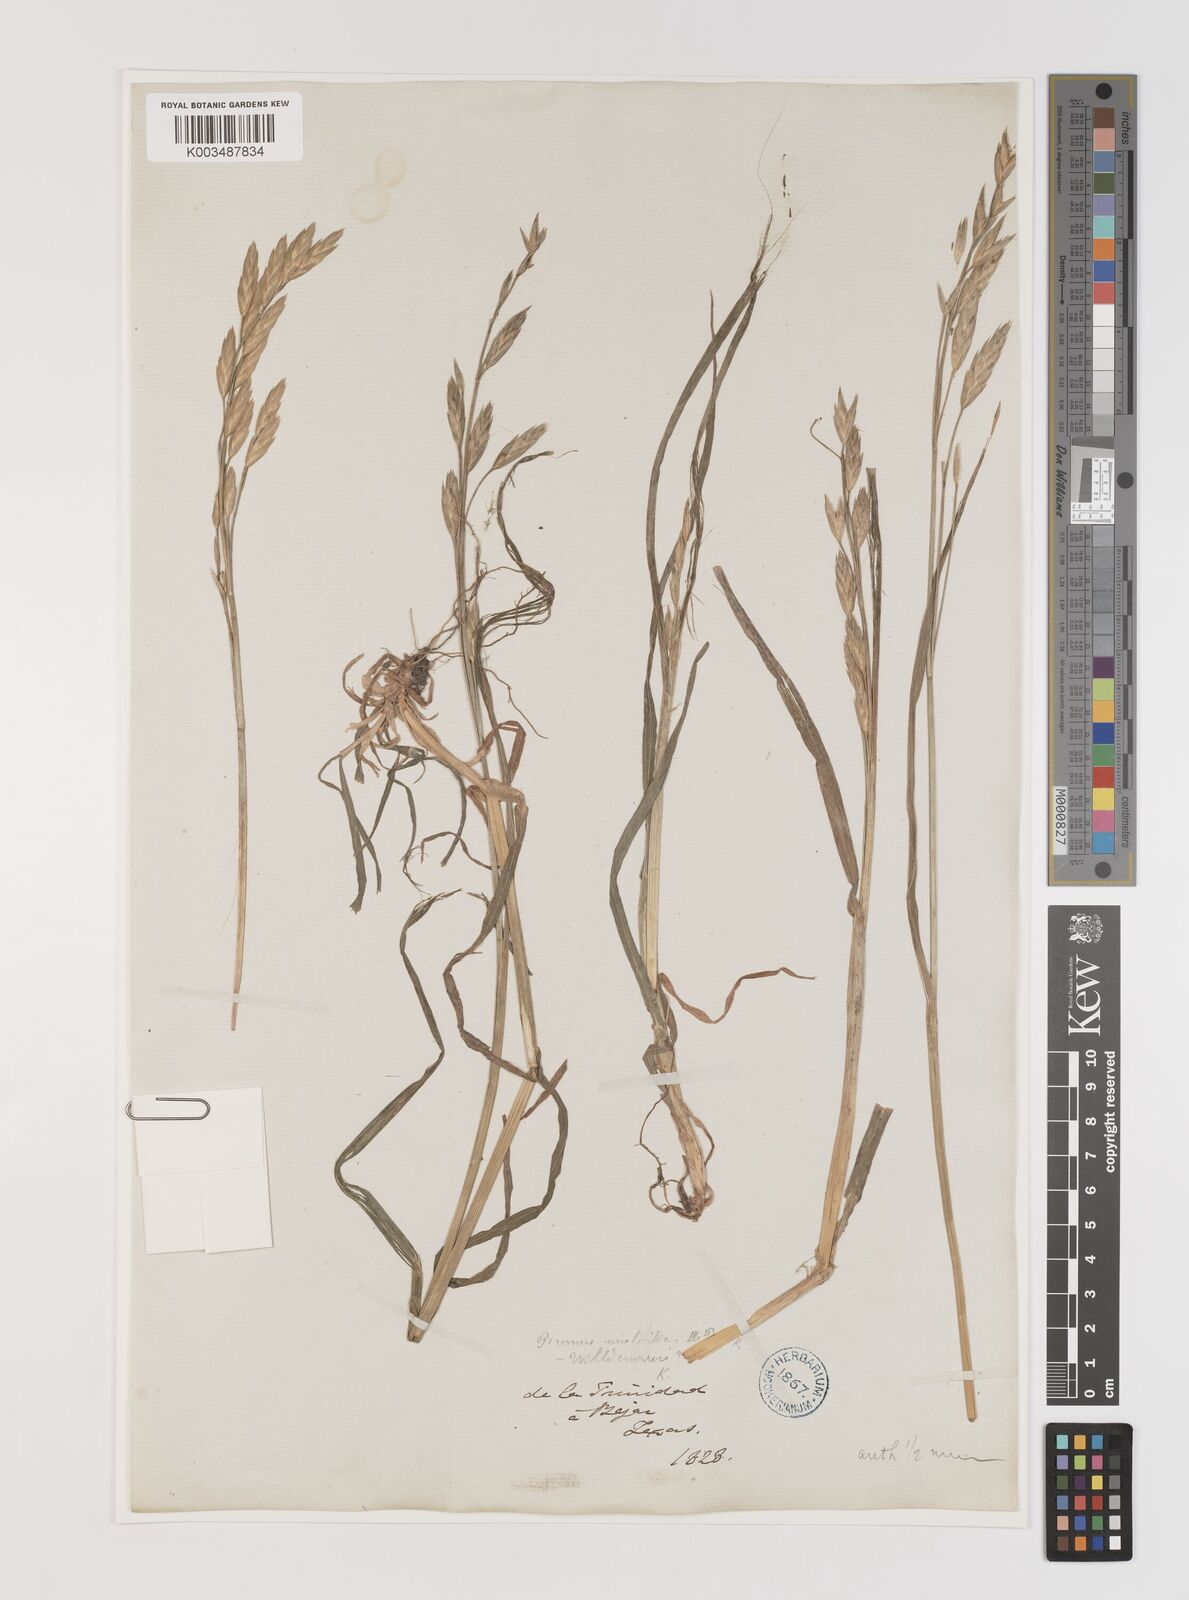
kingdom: Plantae
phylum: Tracheophyta
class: Liliopsida
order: Poales
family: Poaceae
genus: Bromus
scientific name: Bromus catharticus
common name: Rescuegrass
